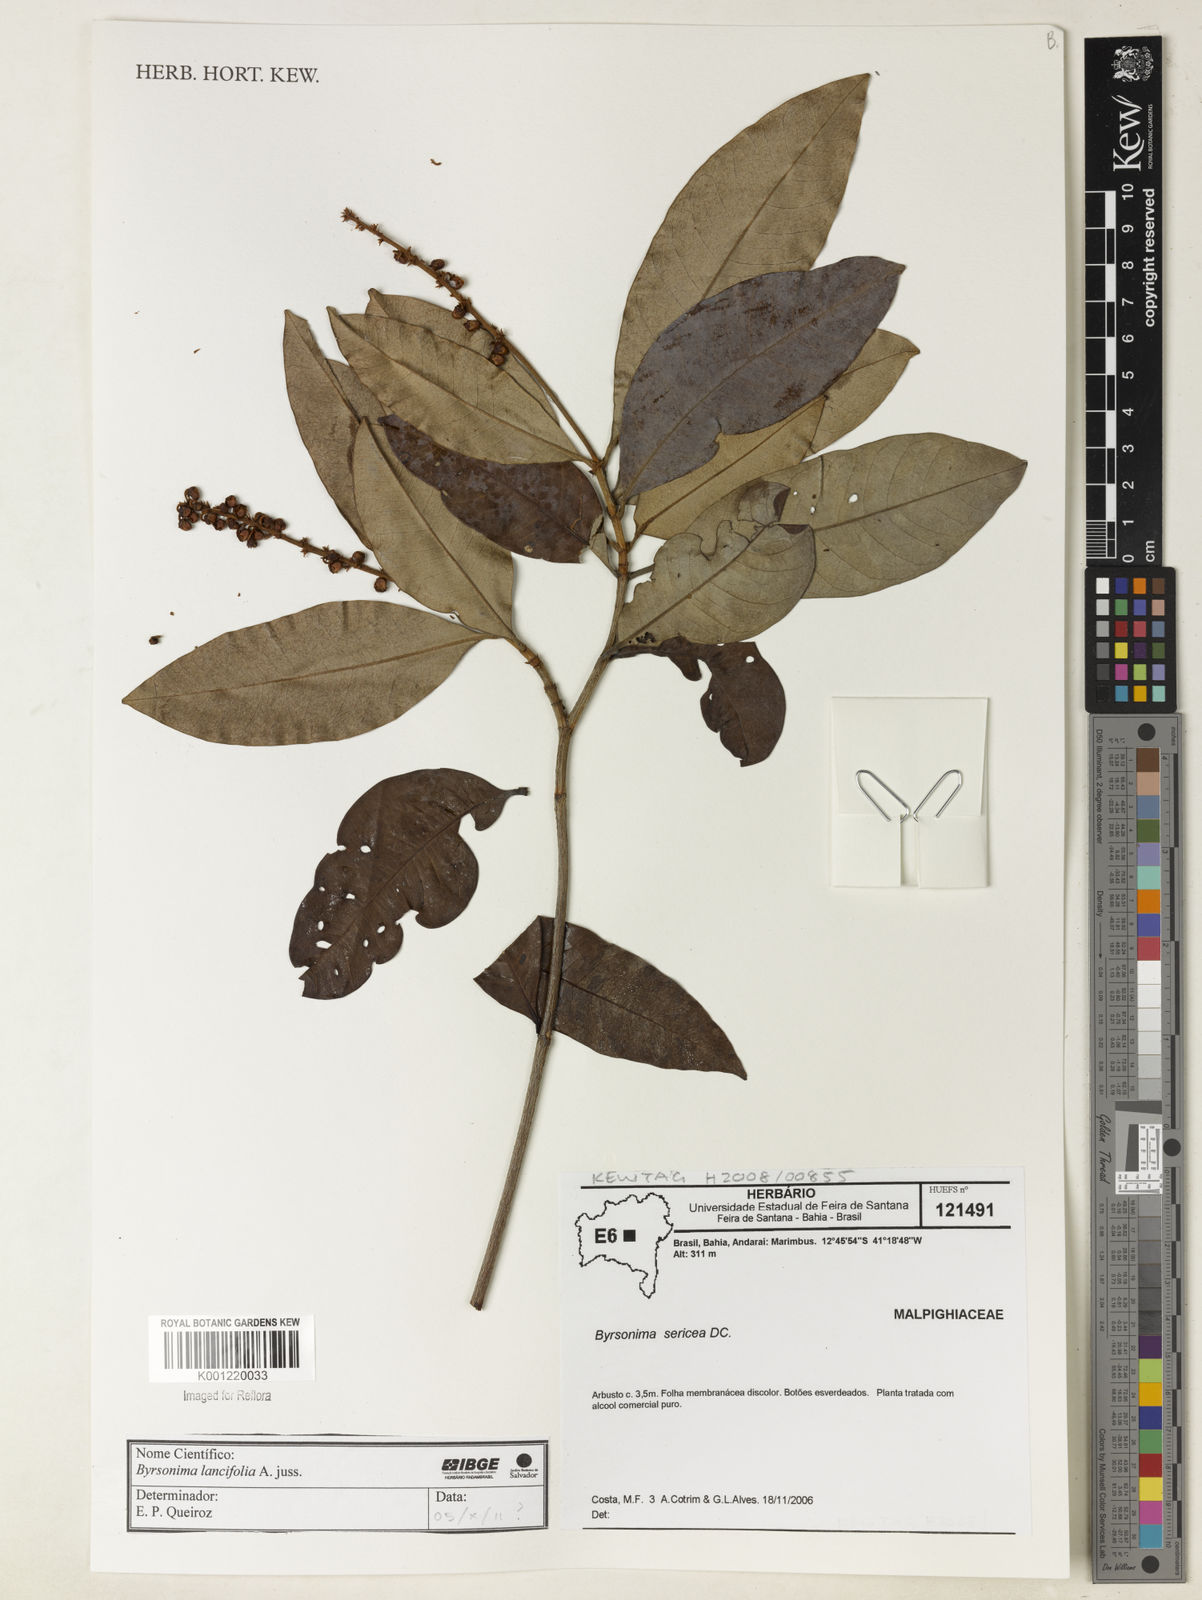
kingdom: Plantae
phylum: Tracheophyta
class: Magnoliopsida
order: Malpighiales
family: Malpighiaceae
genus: Byrsonima
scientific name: Byrsonima lancifolia
